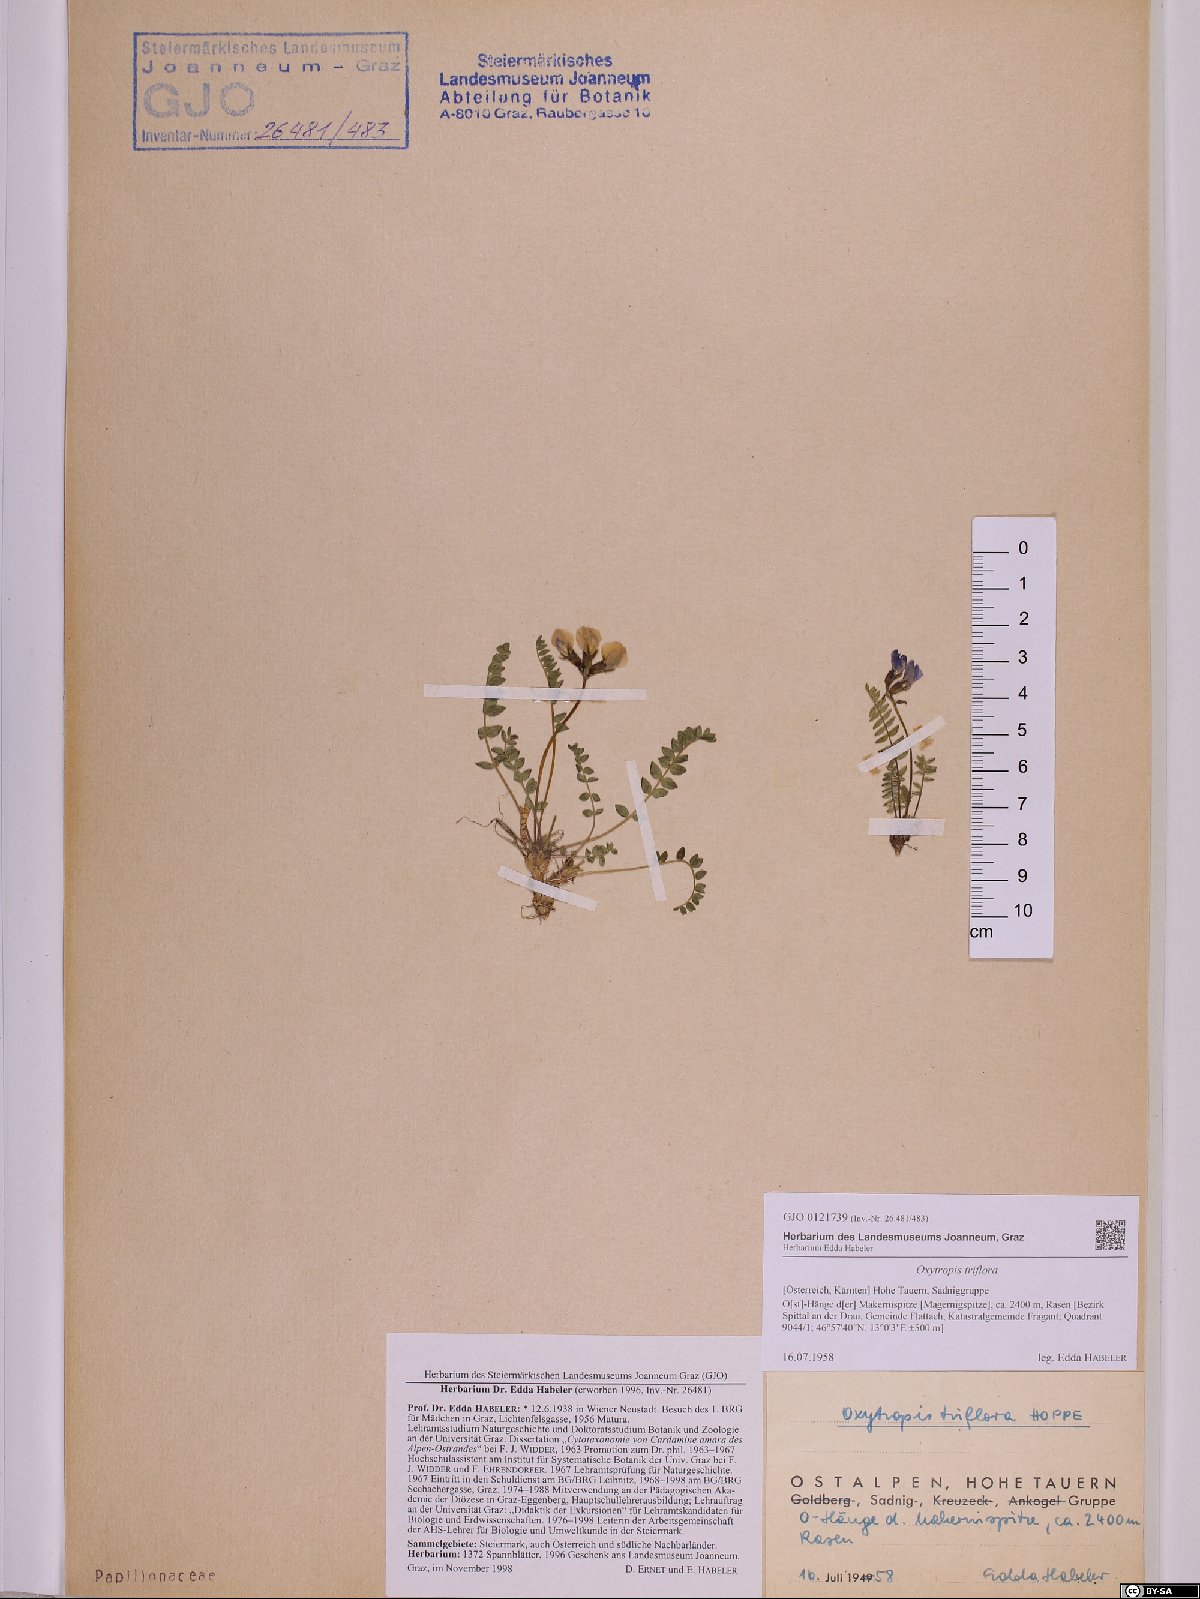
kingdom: Plantae
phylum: Tracheophyta
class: Magnoliopsida
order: Fabales
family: Fabaceae
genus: Oxytropis
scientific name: Oxytropis triflora
